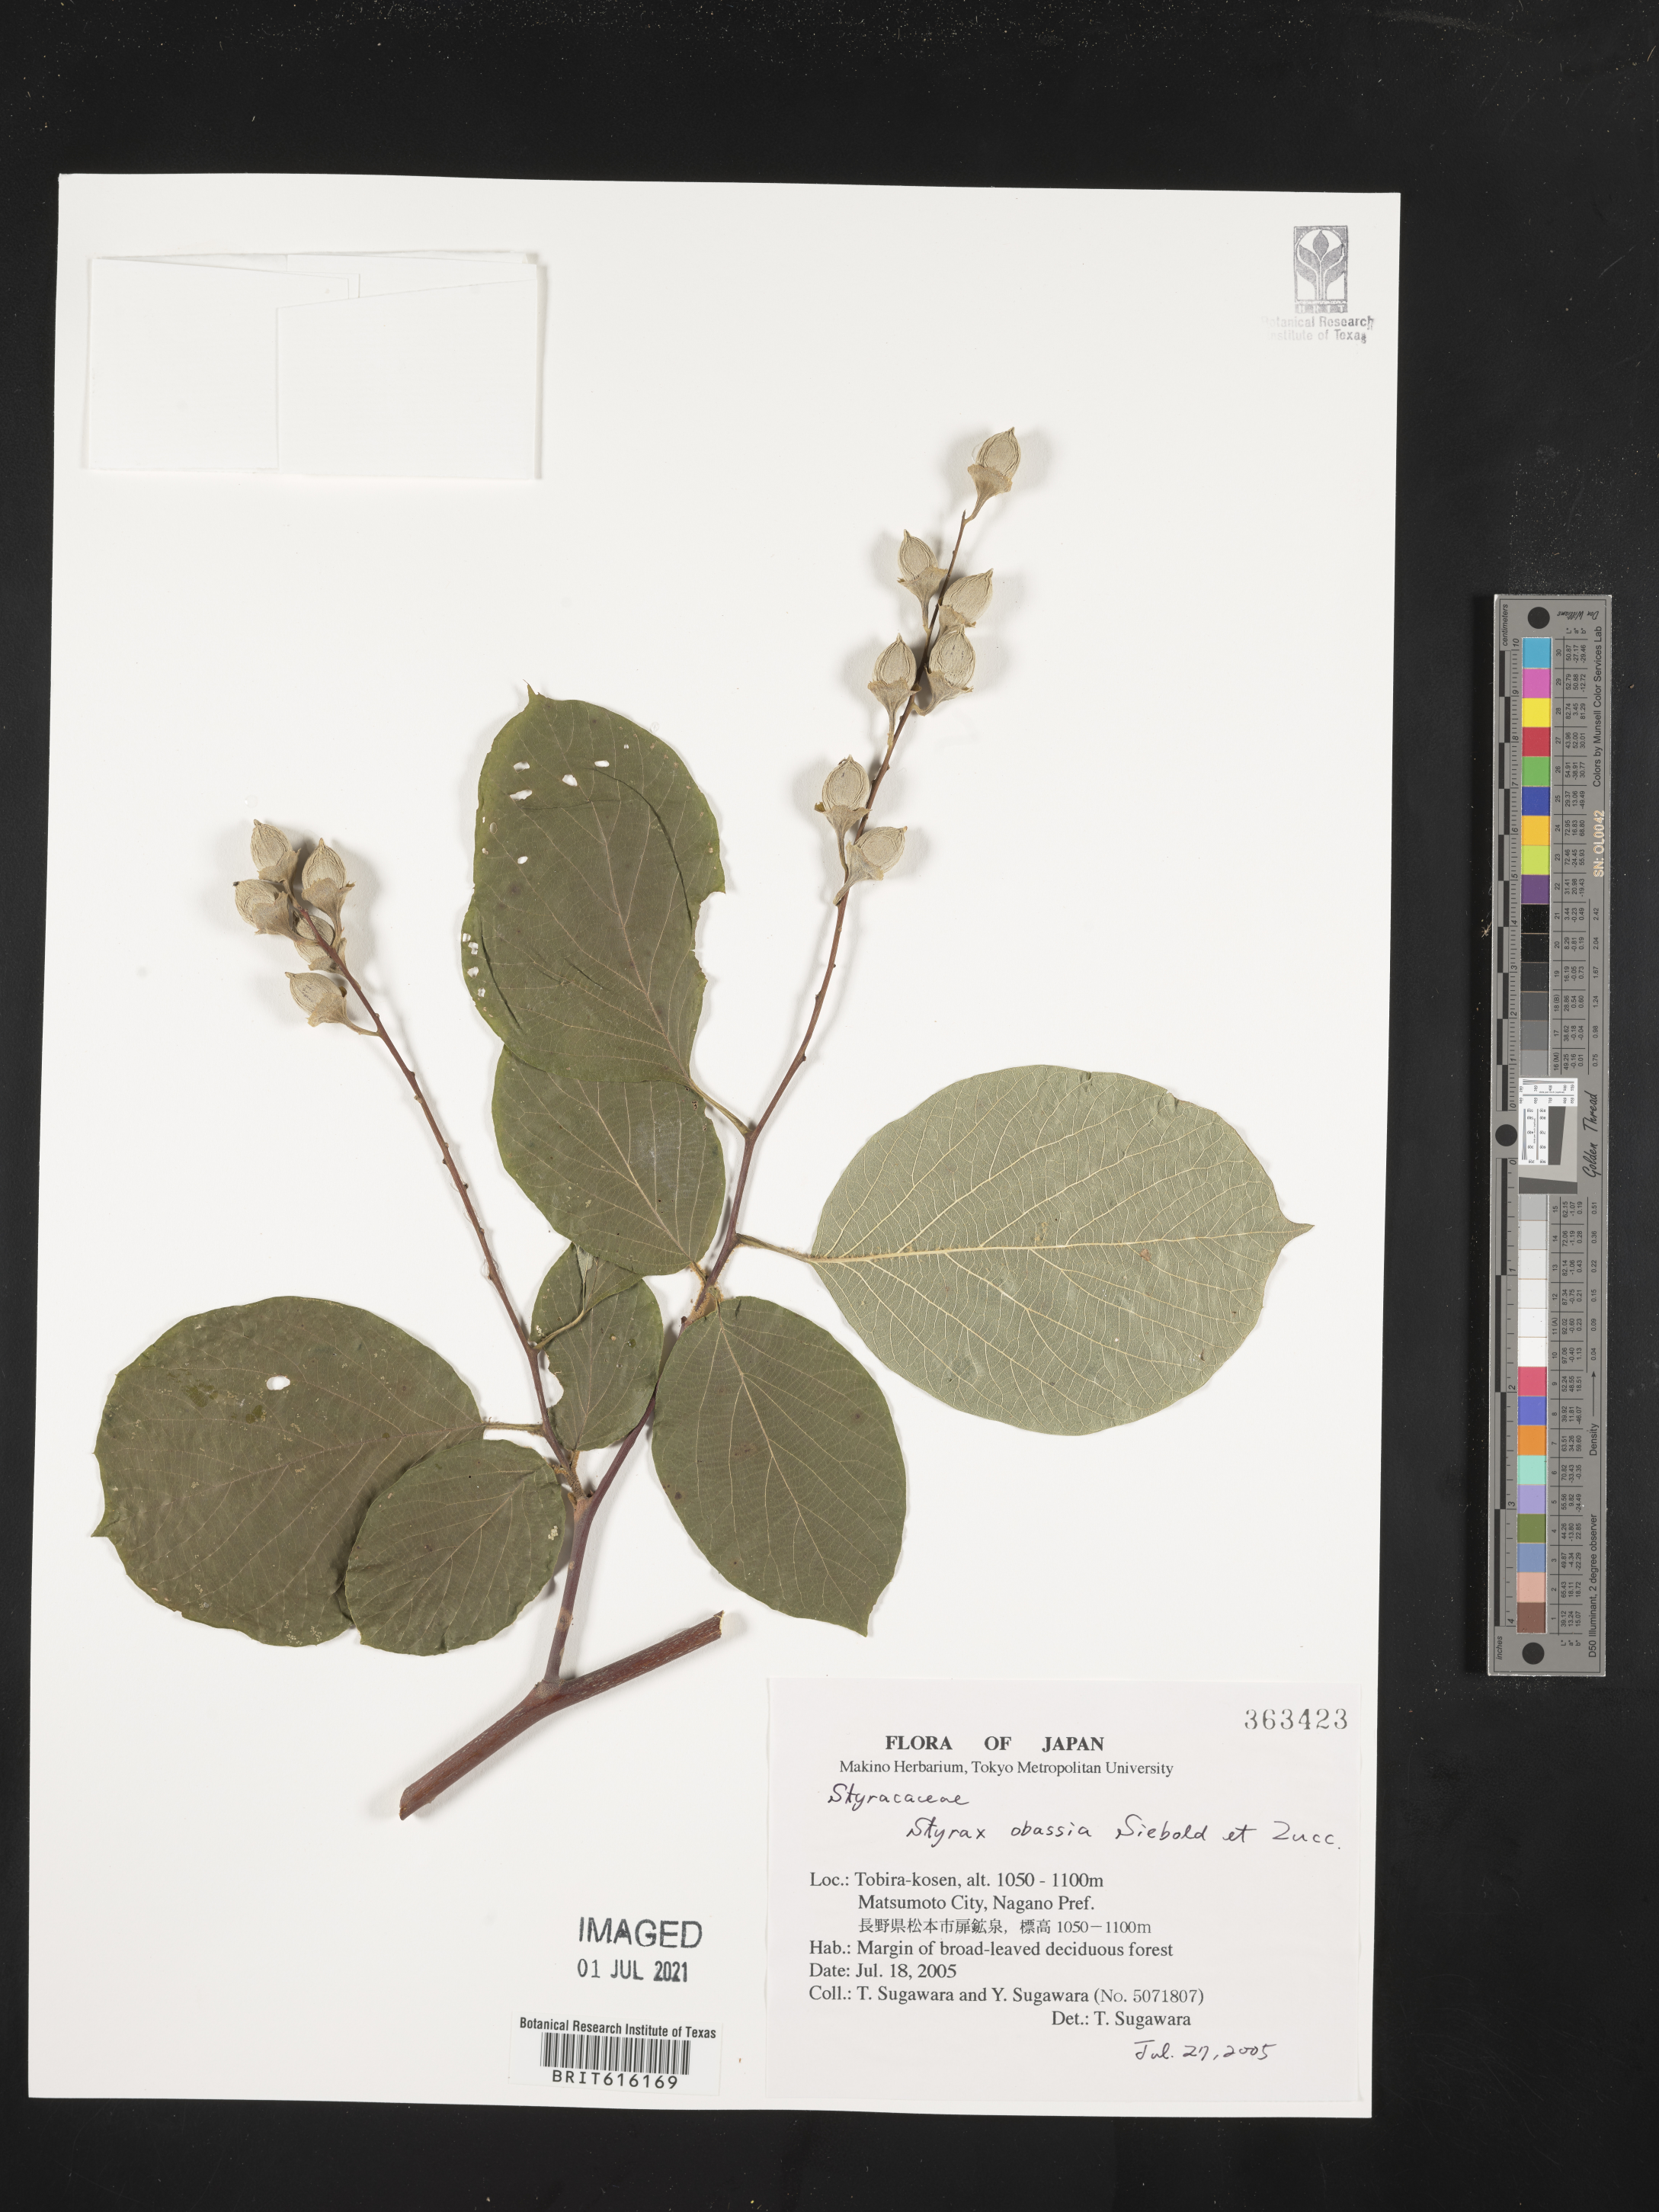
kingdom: Plantae
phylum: Tracheophyta
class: Magnoliopsida
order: Ericales
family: Styracaceae
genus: Styrax
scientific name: Styrax obassia
